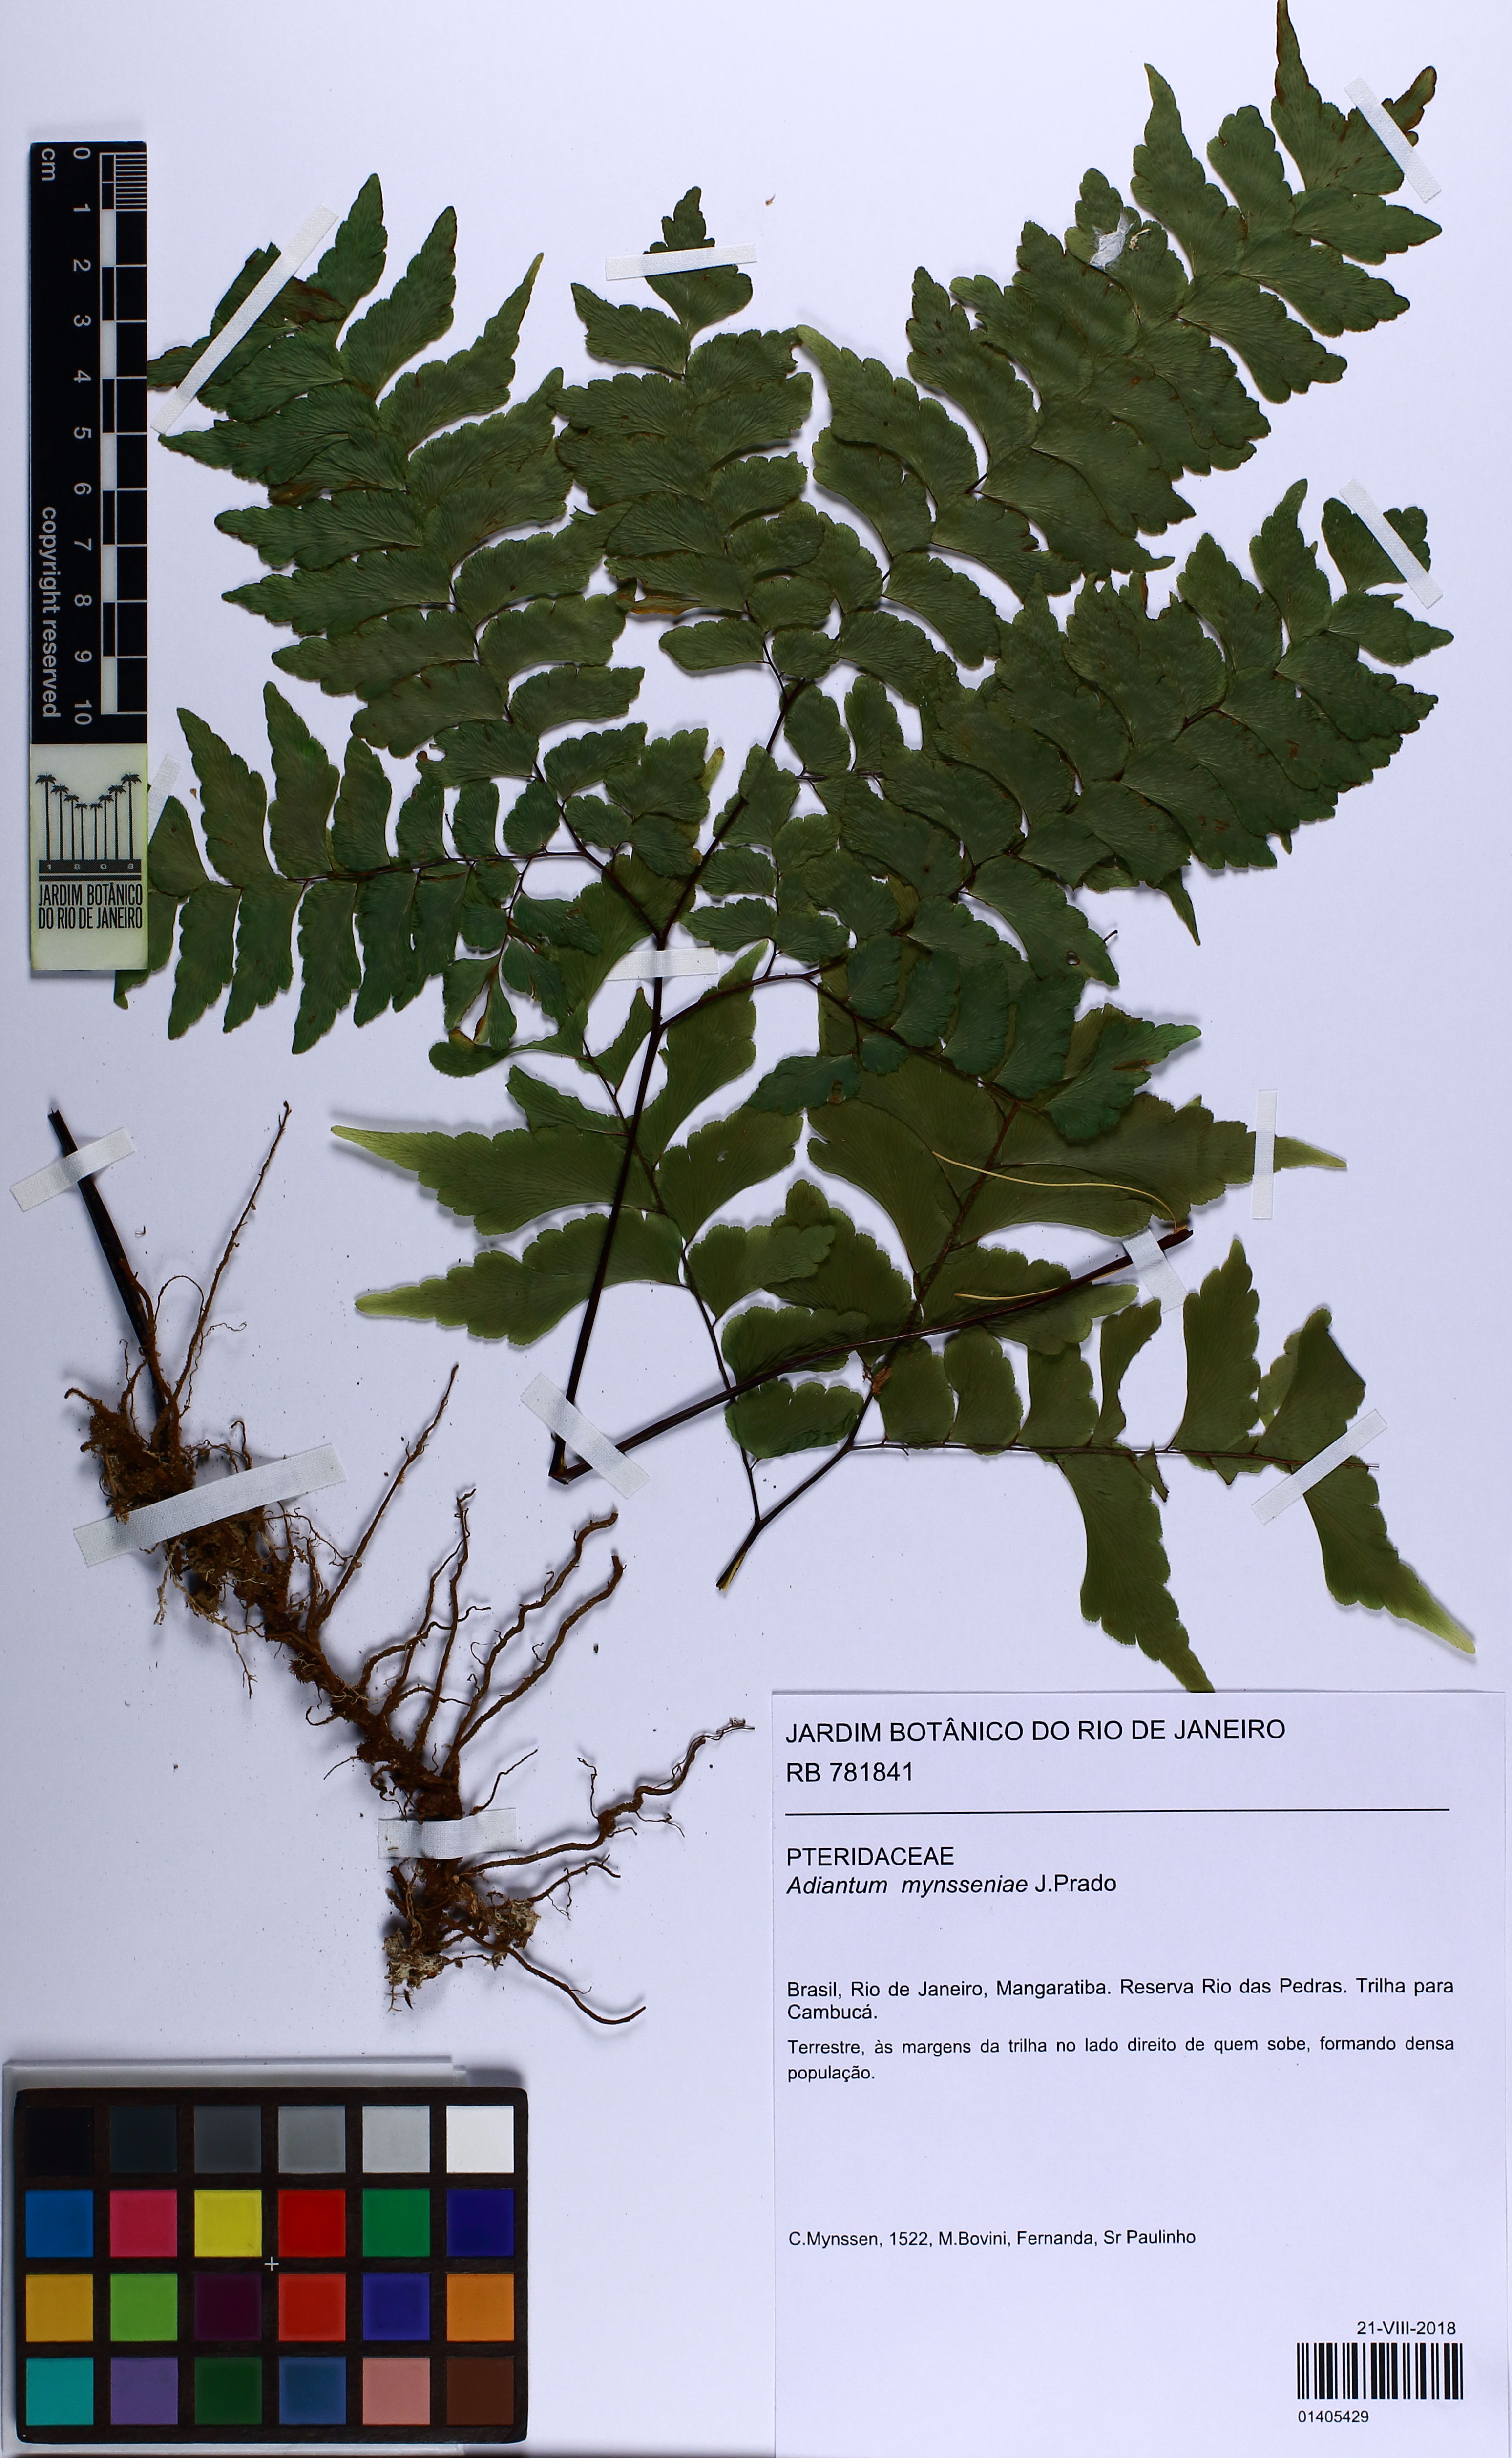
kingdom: Plantae
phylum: Tracheophyta
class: Polypodiopsida
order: Polypodiales
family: Pteridaceae
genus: Adiantum
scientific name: Adiantum mynsseniae
